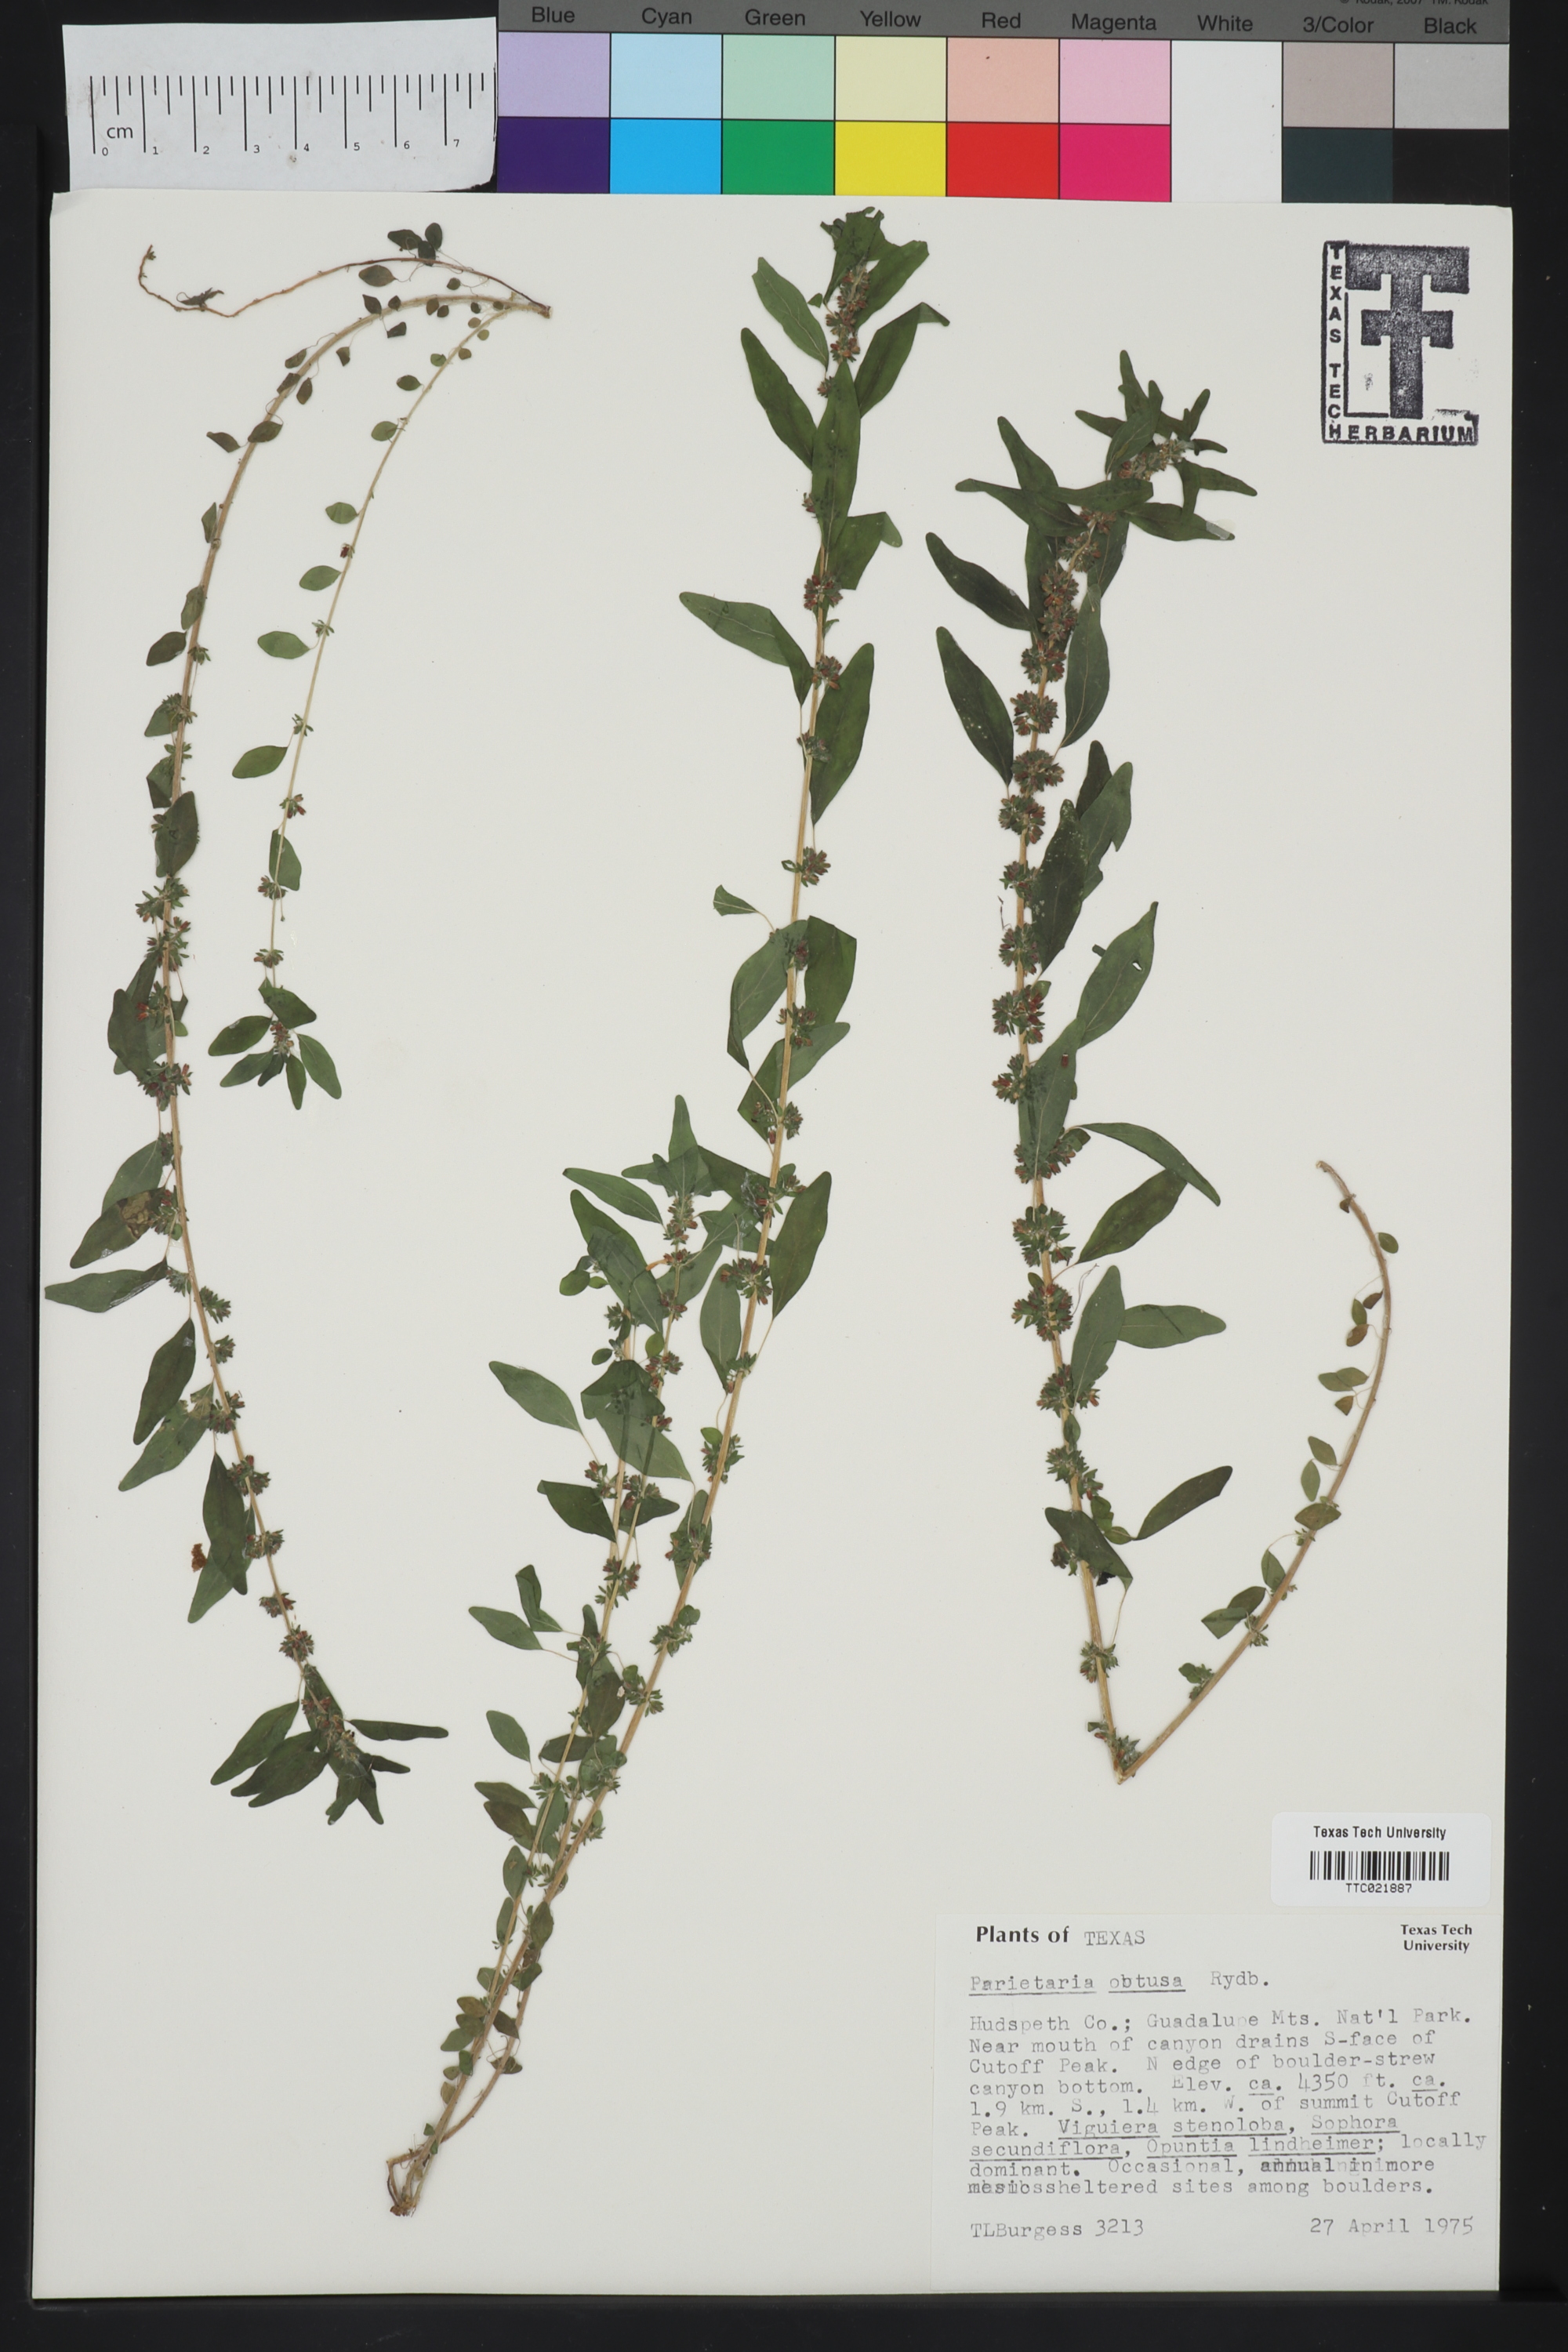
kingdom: Plantae
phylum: Tracheophyta
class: Magnoliopsida
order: Rosales
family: Urticaceae
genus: Parietaria
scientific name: Parietaria pensylvanica
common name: Pennsylvania pellitory
